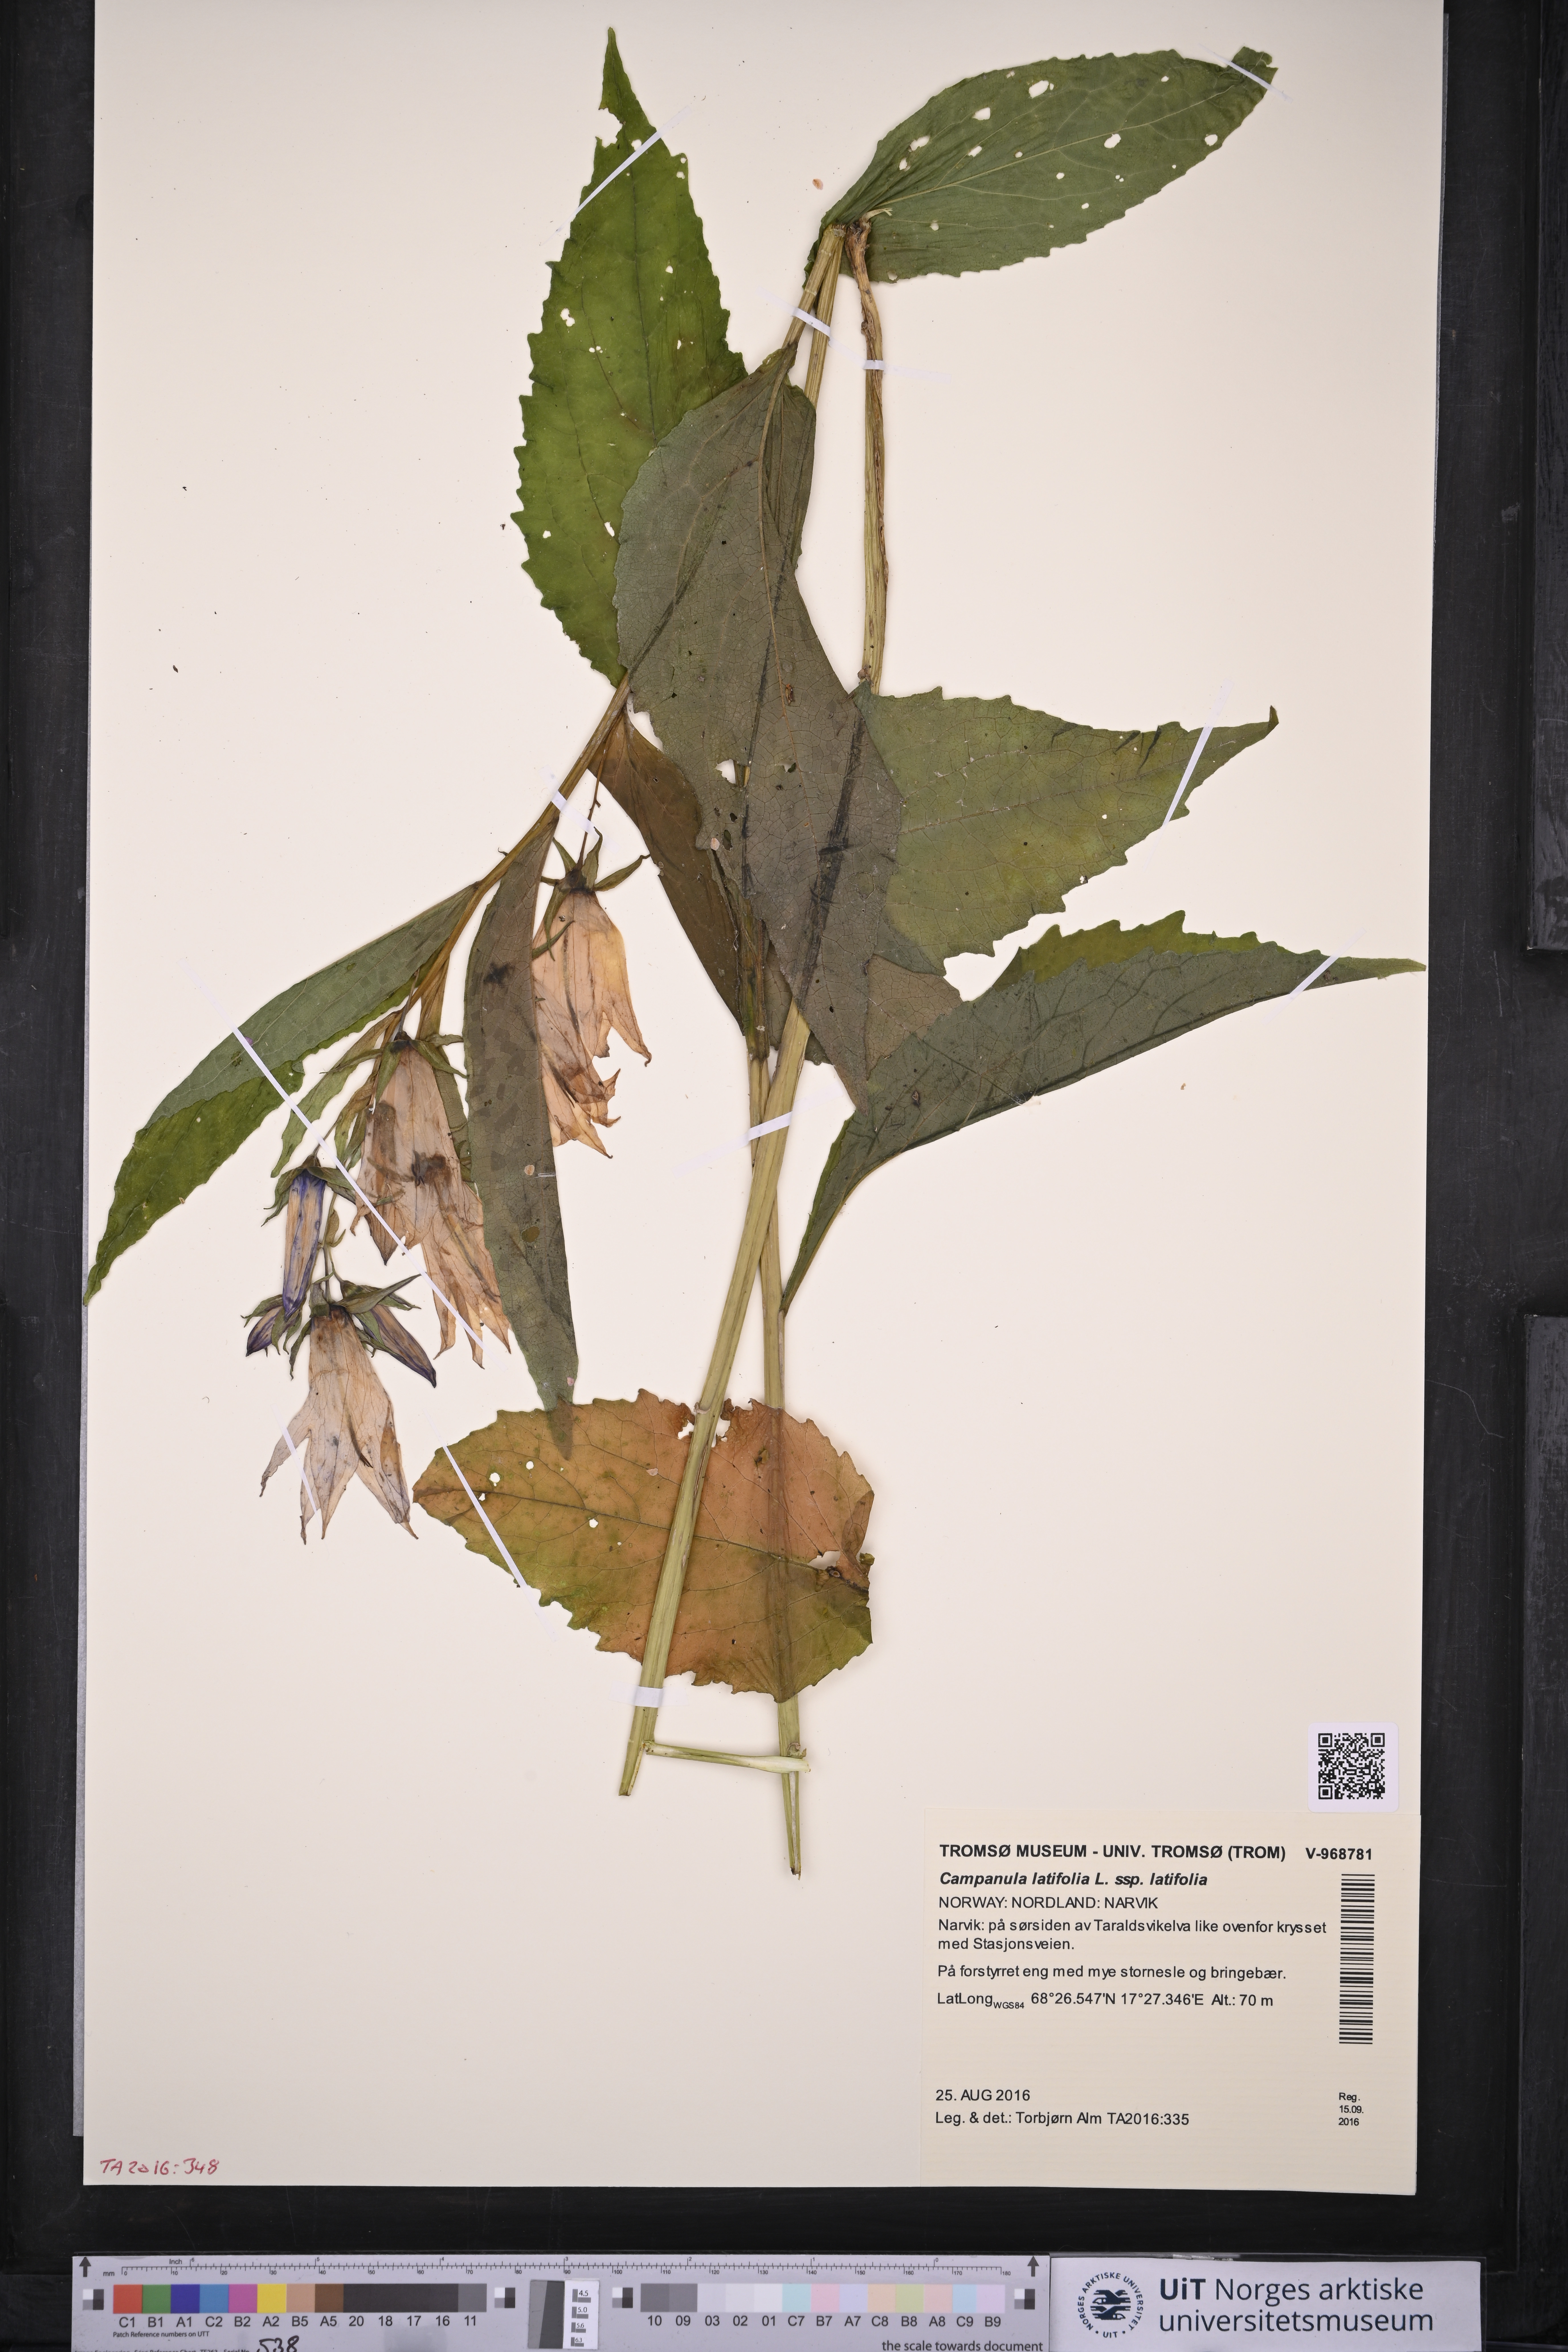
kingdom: Plantae
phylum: Tracheophyta
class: Magnoliopsida
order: Asterales
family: Campanulaceae
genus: Campanula
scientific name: Campanula latifolia
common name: Giant bellflower
